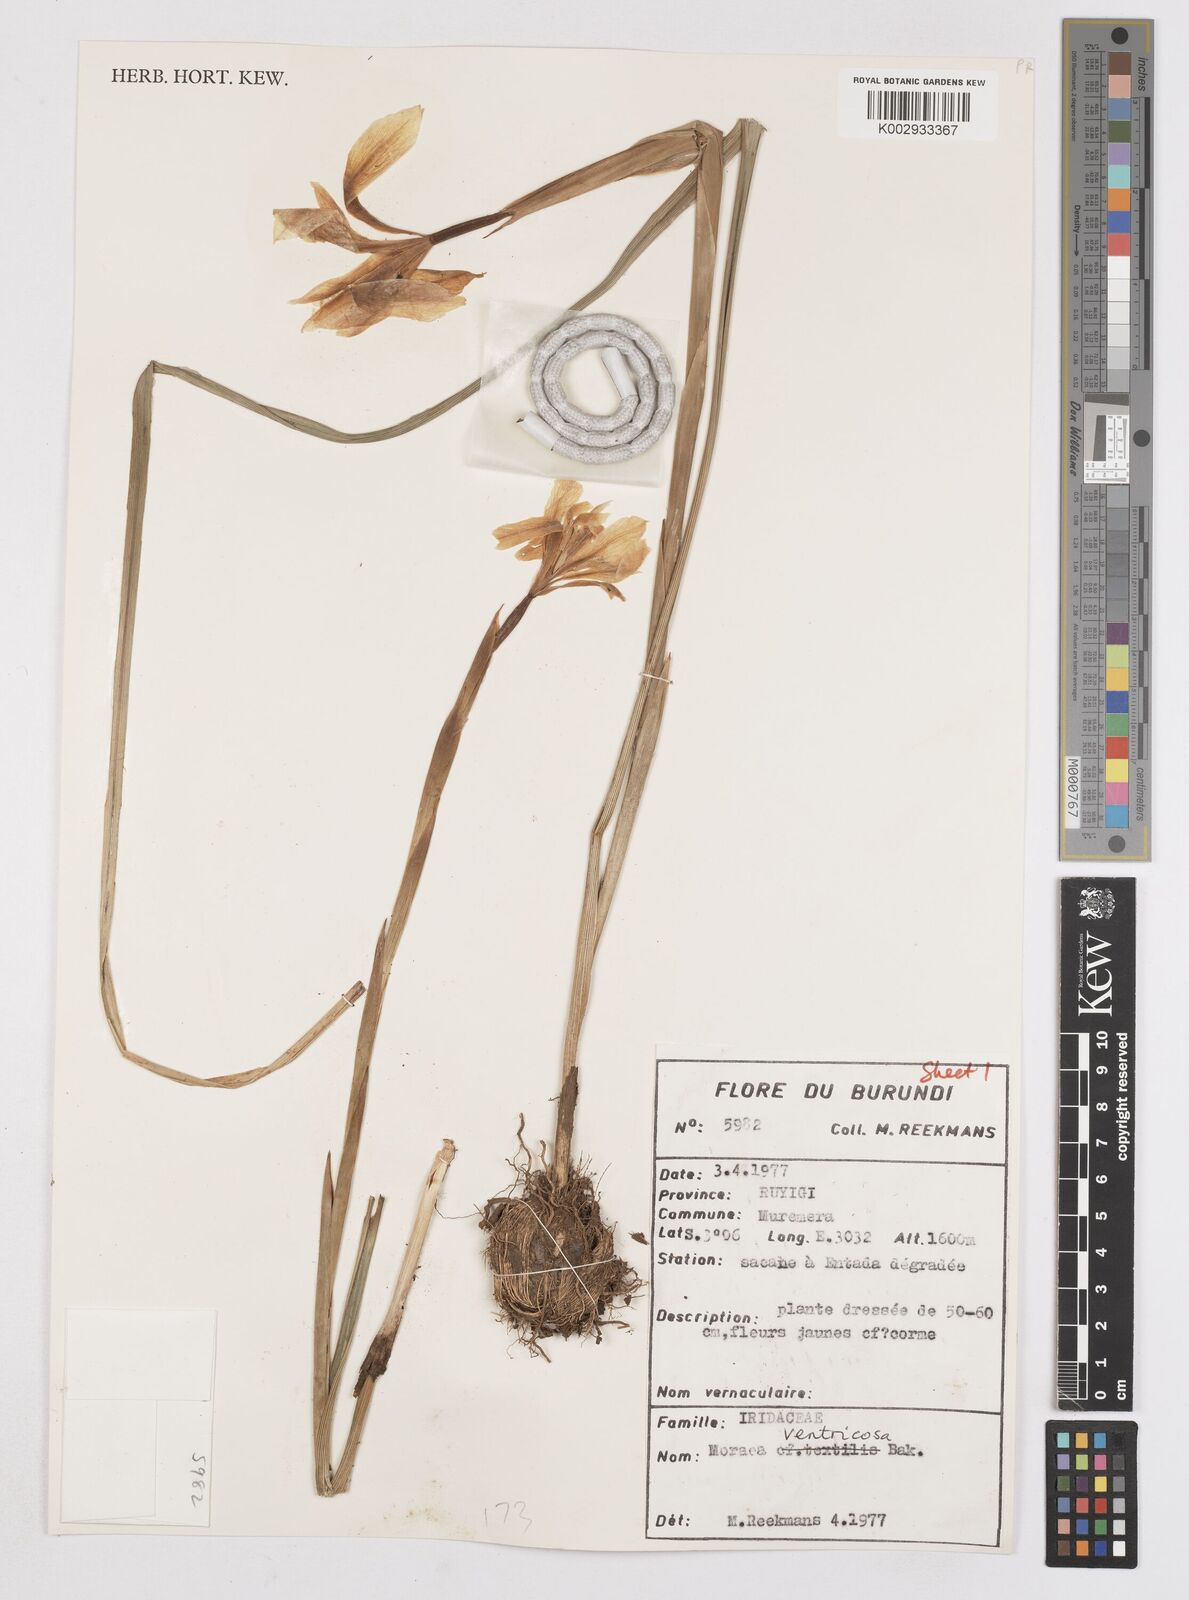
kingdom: Plantae
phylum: Tracheophyta
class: Liliopsida
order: Asparagales
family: Iridaceae
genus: Moraea
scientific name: Moraea ventricosa
